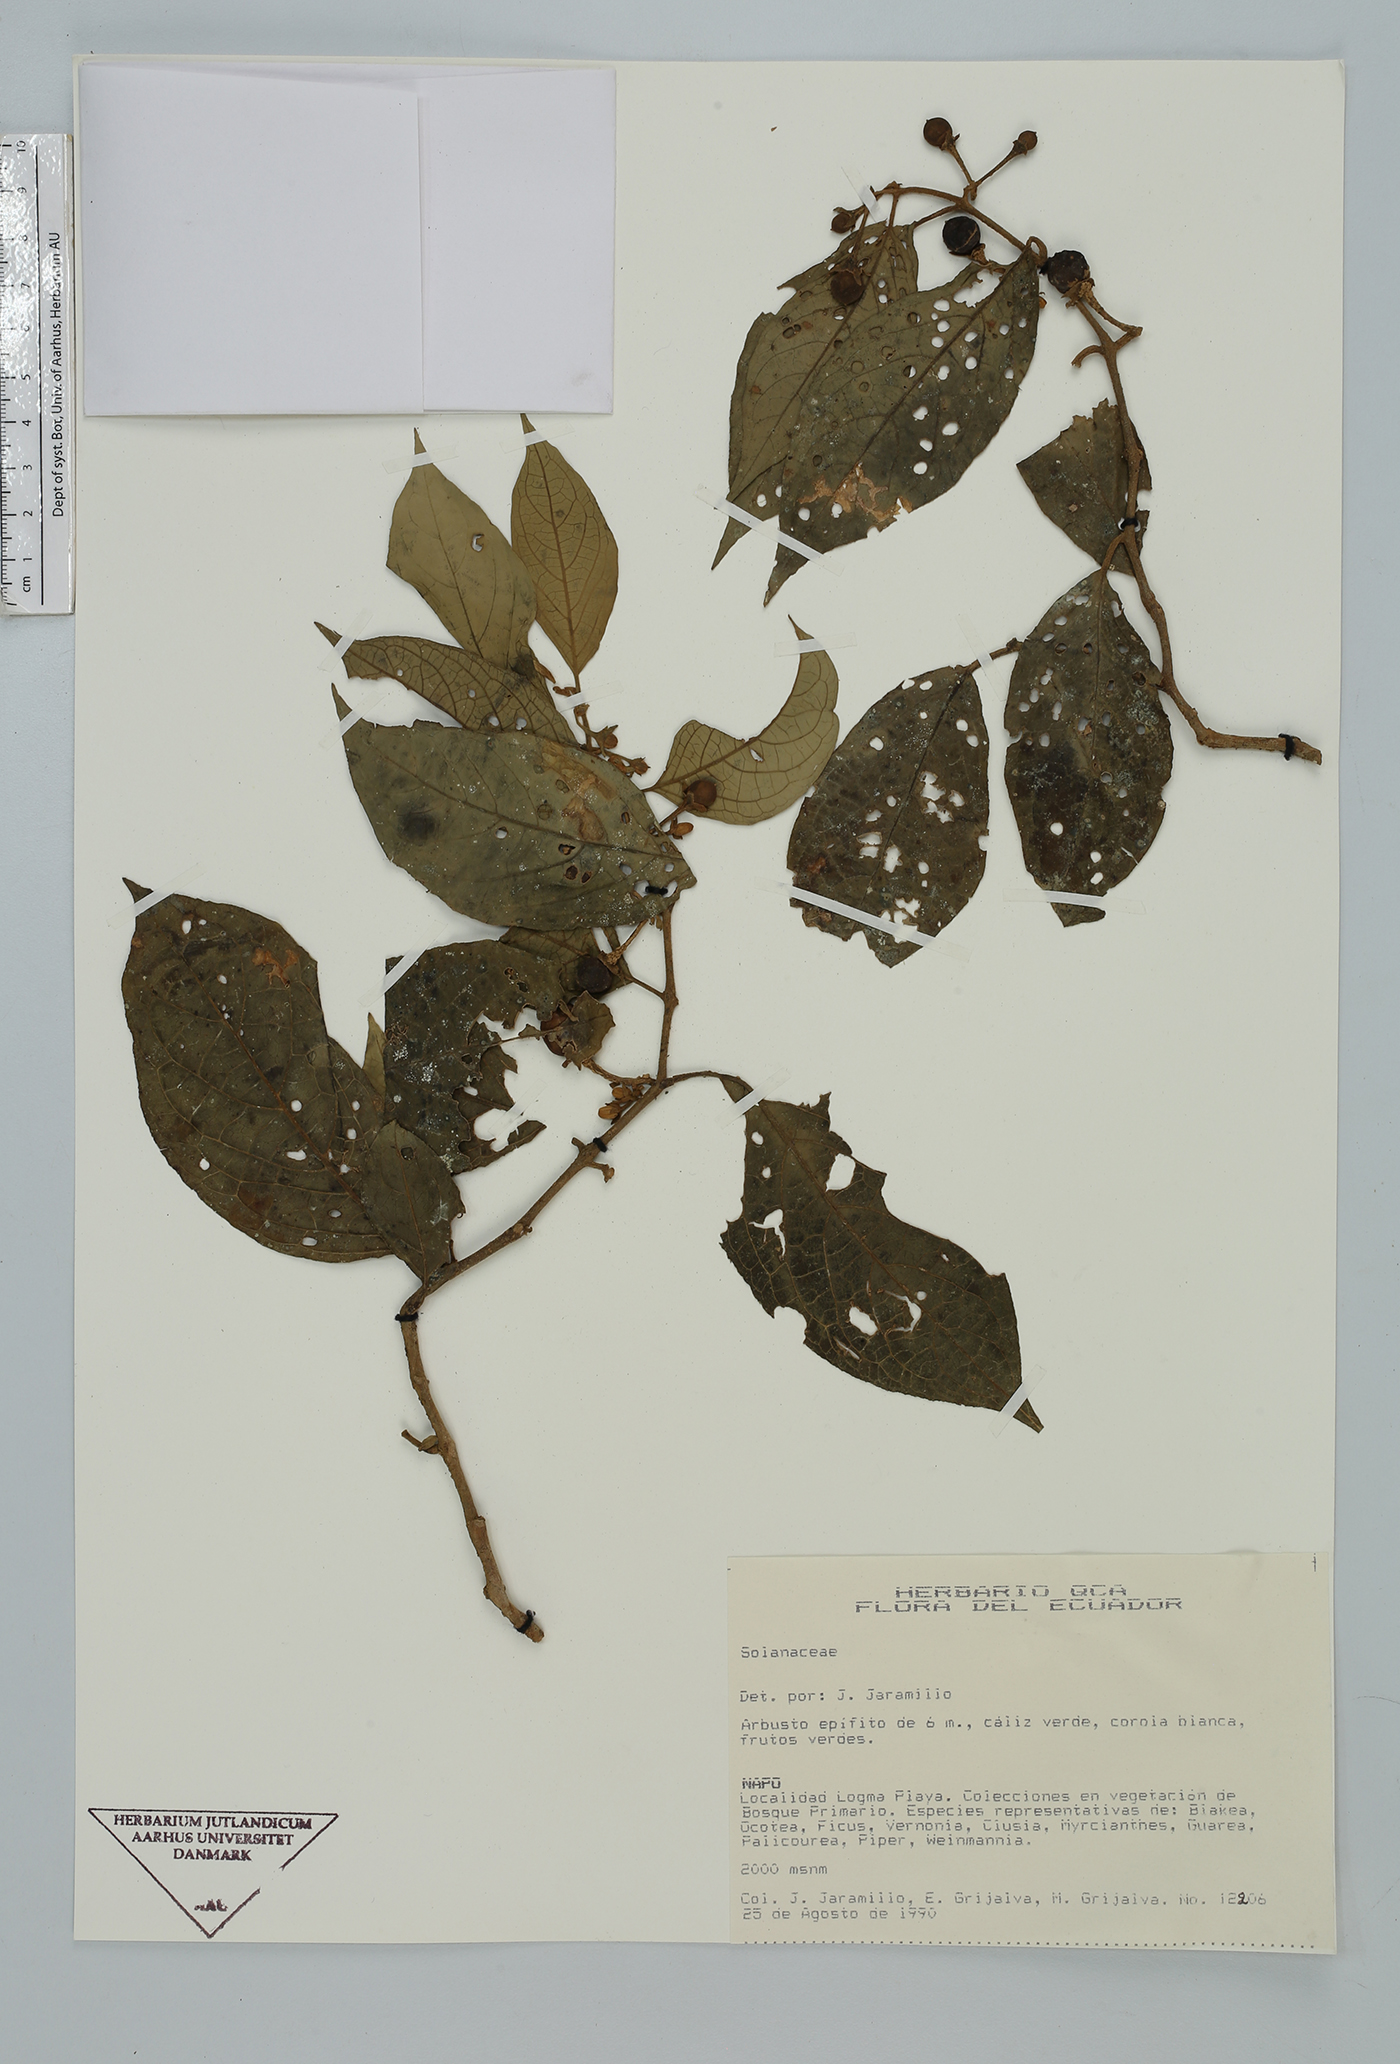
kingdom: Plantae
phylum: Tracheophyta
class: Magnoliopsida
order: Solanales
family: Solanaceae
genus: Solanum
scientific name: Solanum
